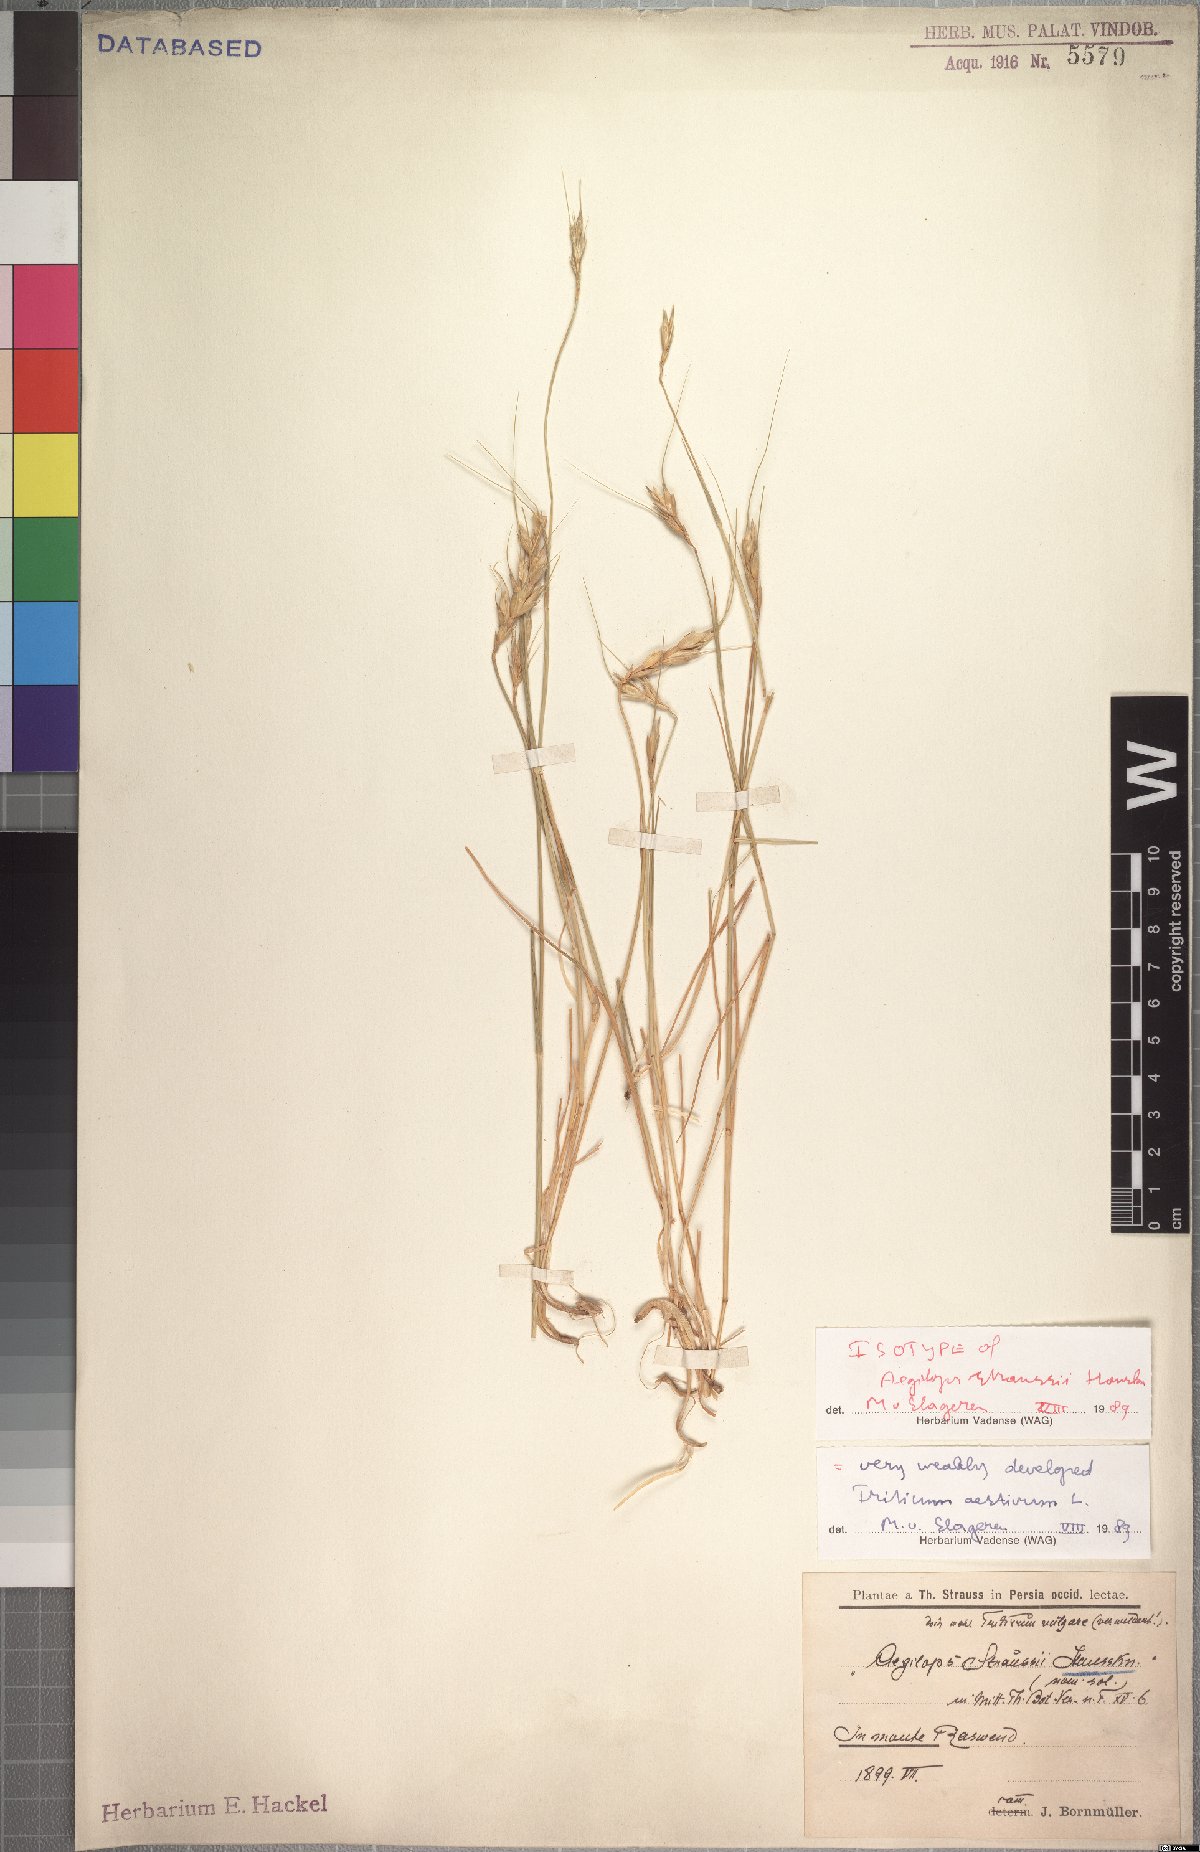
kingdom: Plantae
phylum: Tracheophyta
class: Liliopsida
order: Poales
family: Poaceae
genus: Triticum
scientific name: Triticum aestivum
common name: Common wheat
